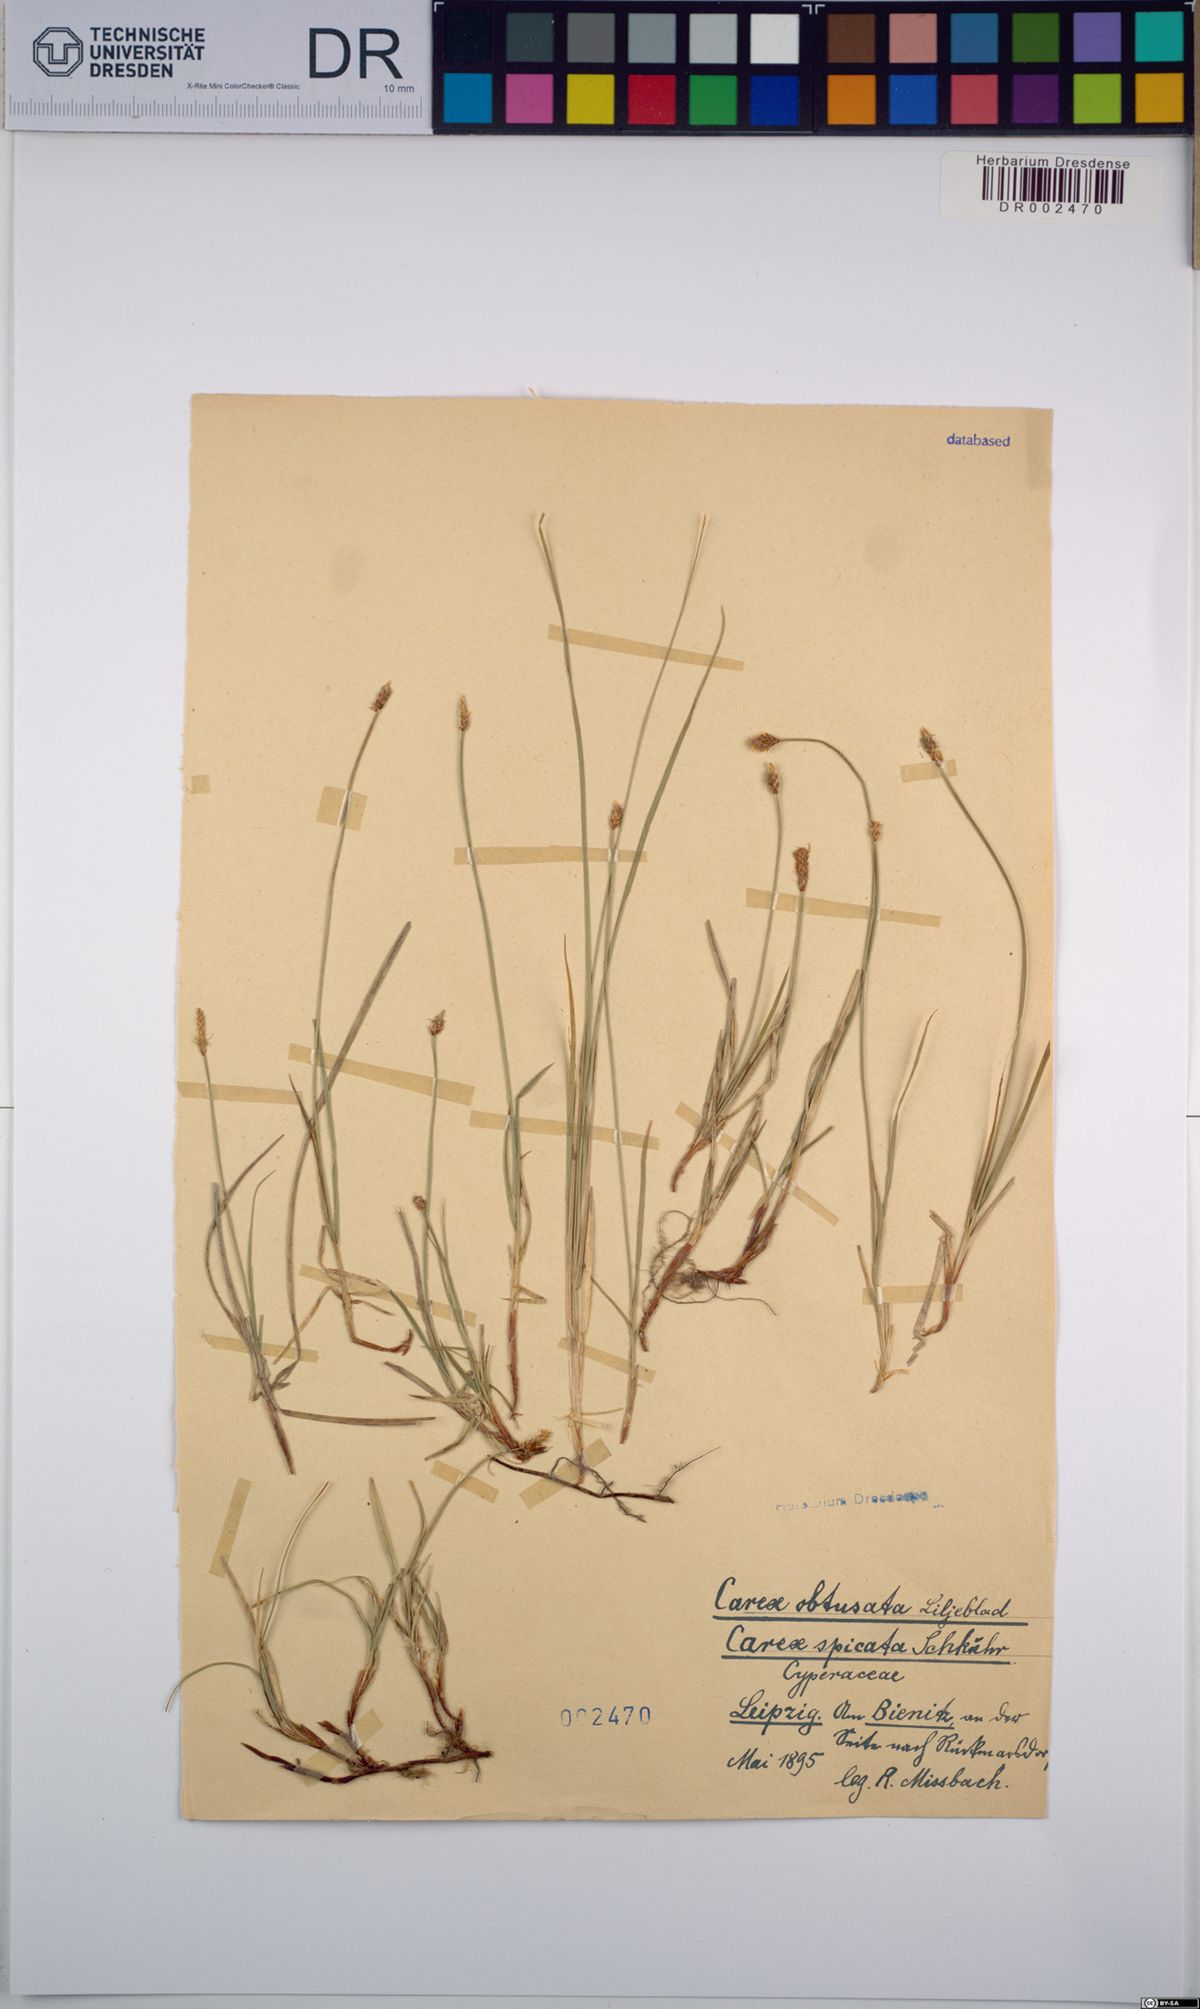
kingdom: Plantae
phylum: Tracheophyta
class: Liliopsida
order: Poales
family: Cyperaceae
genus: Carex
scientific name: Carex obtusata
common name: Blunt sedge
